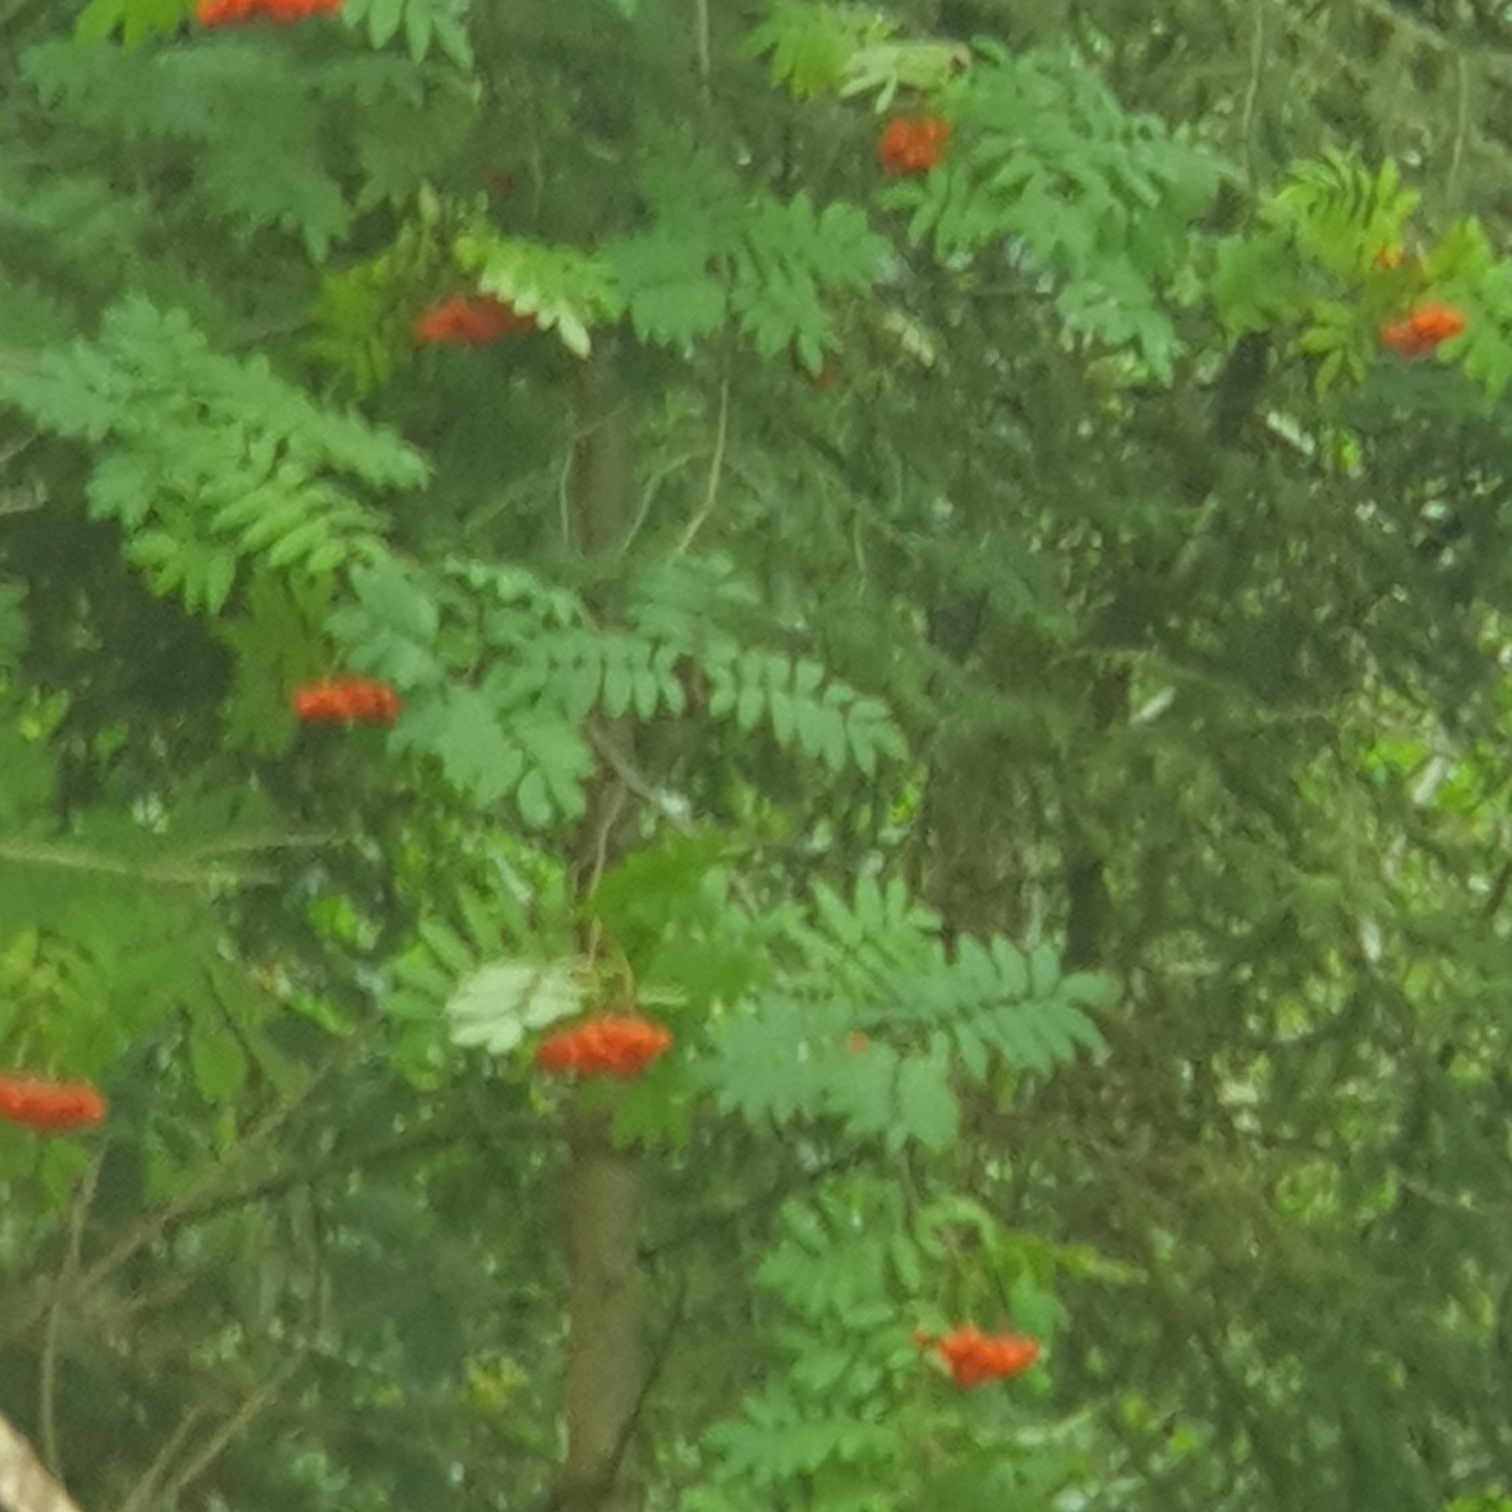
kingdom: Plantae
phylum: Tracheophyta
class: Magnoliopsida
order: Rosales
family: Rosaceae
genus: Sorbus
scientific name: Sorbus aucuparia
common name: Almindelig røn
